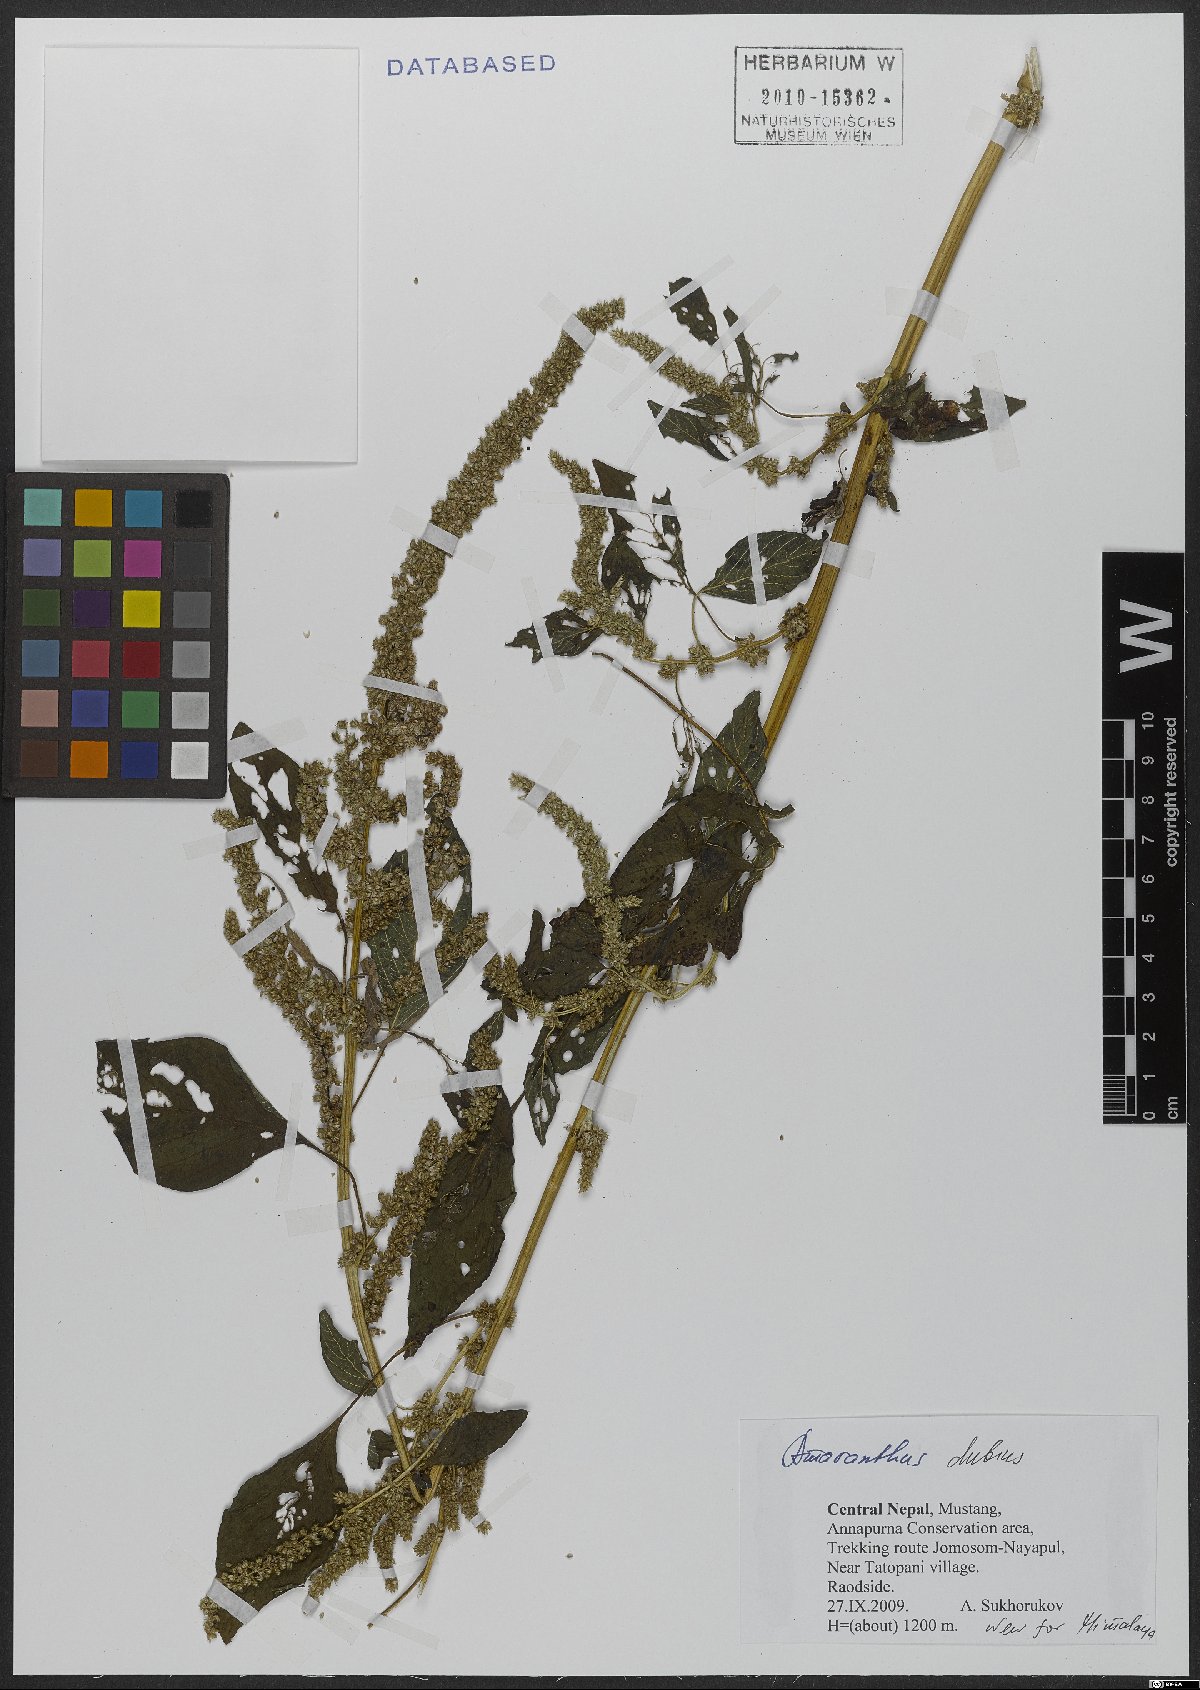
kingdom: Plantae
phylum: Tracheophyta
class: Magnoliopsida
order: Caryophyllales
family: Amaranthaceae
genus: Amaranthus
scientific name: Amaranthus dubius
